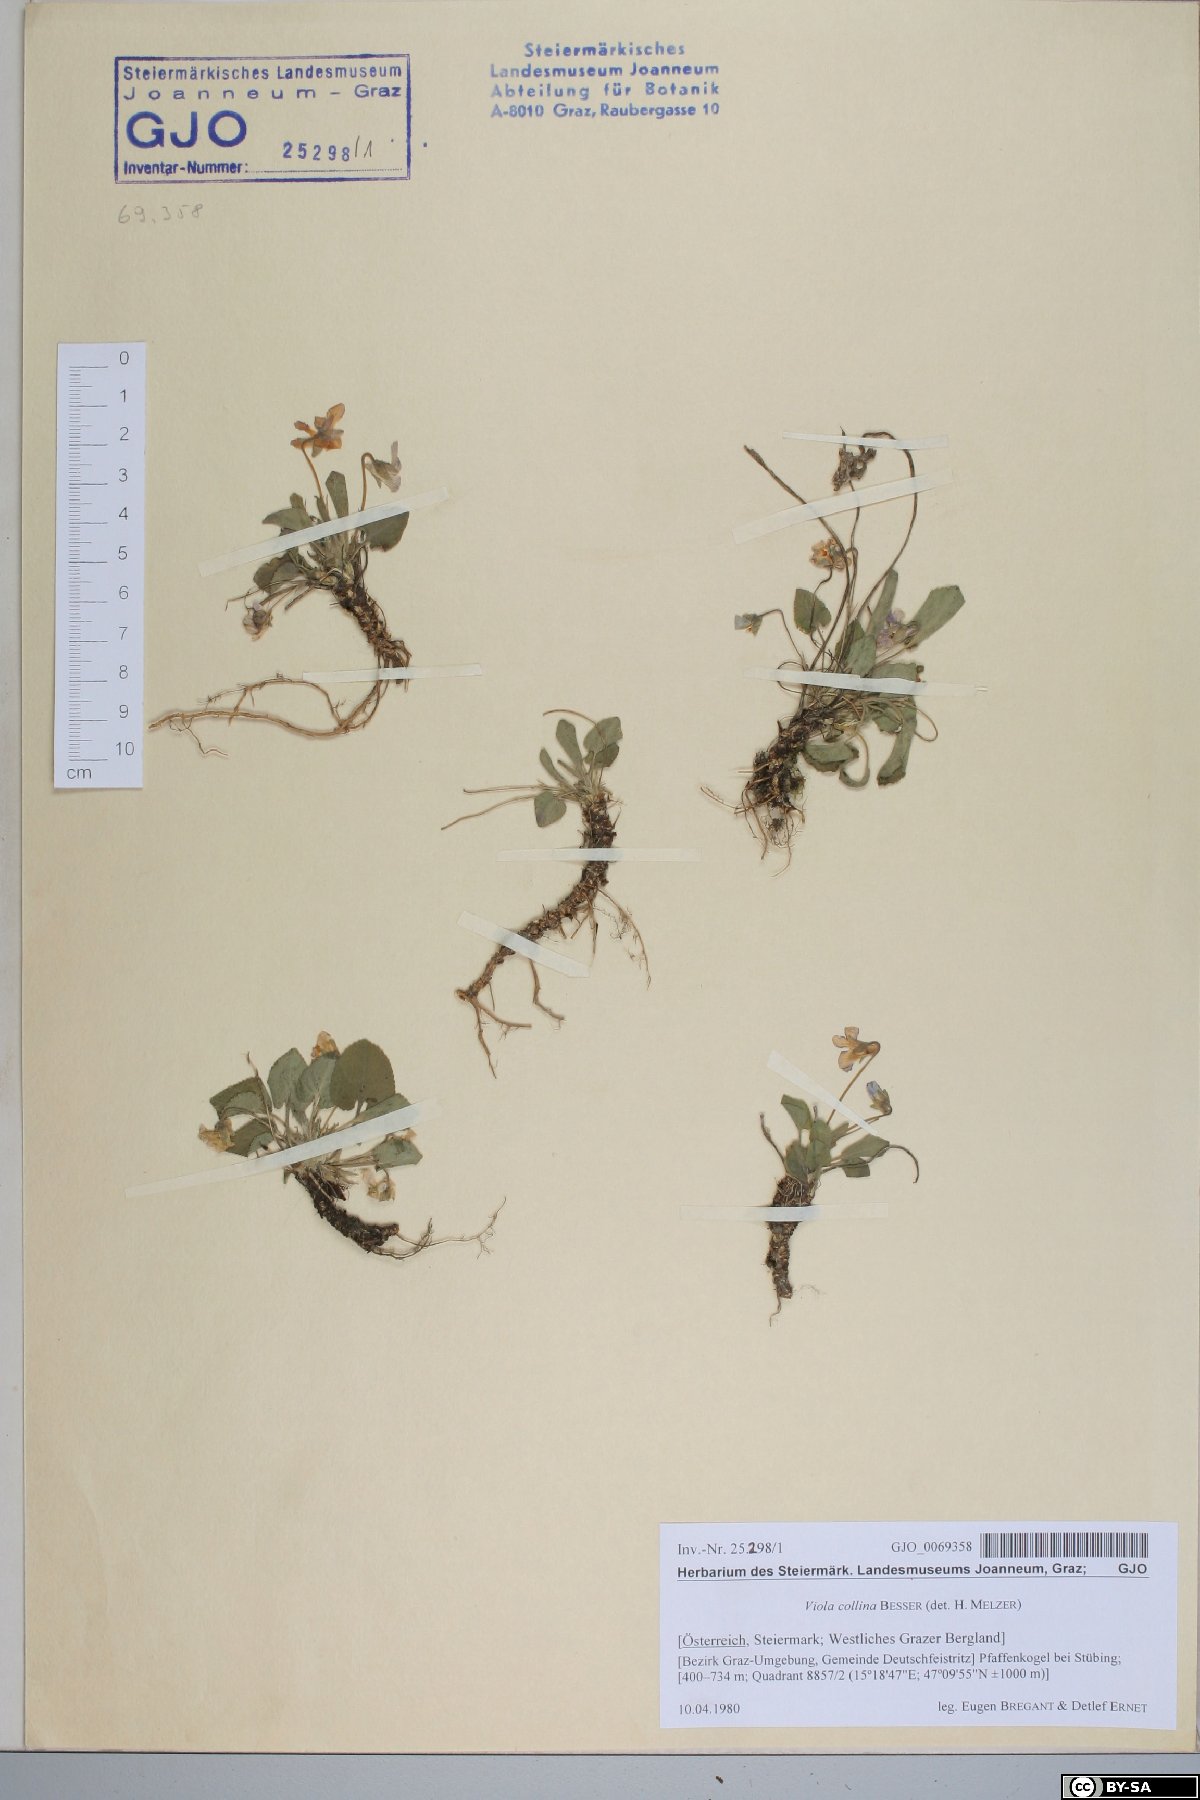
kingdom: Plantae
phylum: Tracheophyta
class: Magnoliopsida
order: Malpighiales
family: Violaceae
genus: Viola
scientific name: Viola collina
